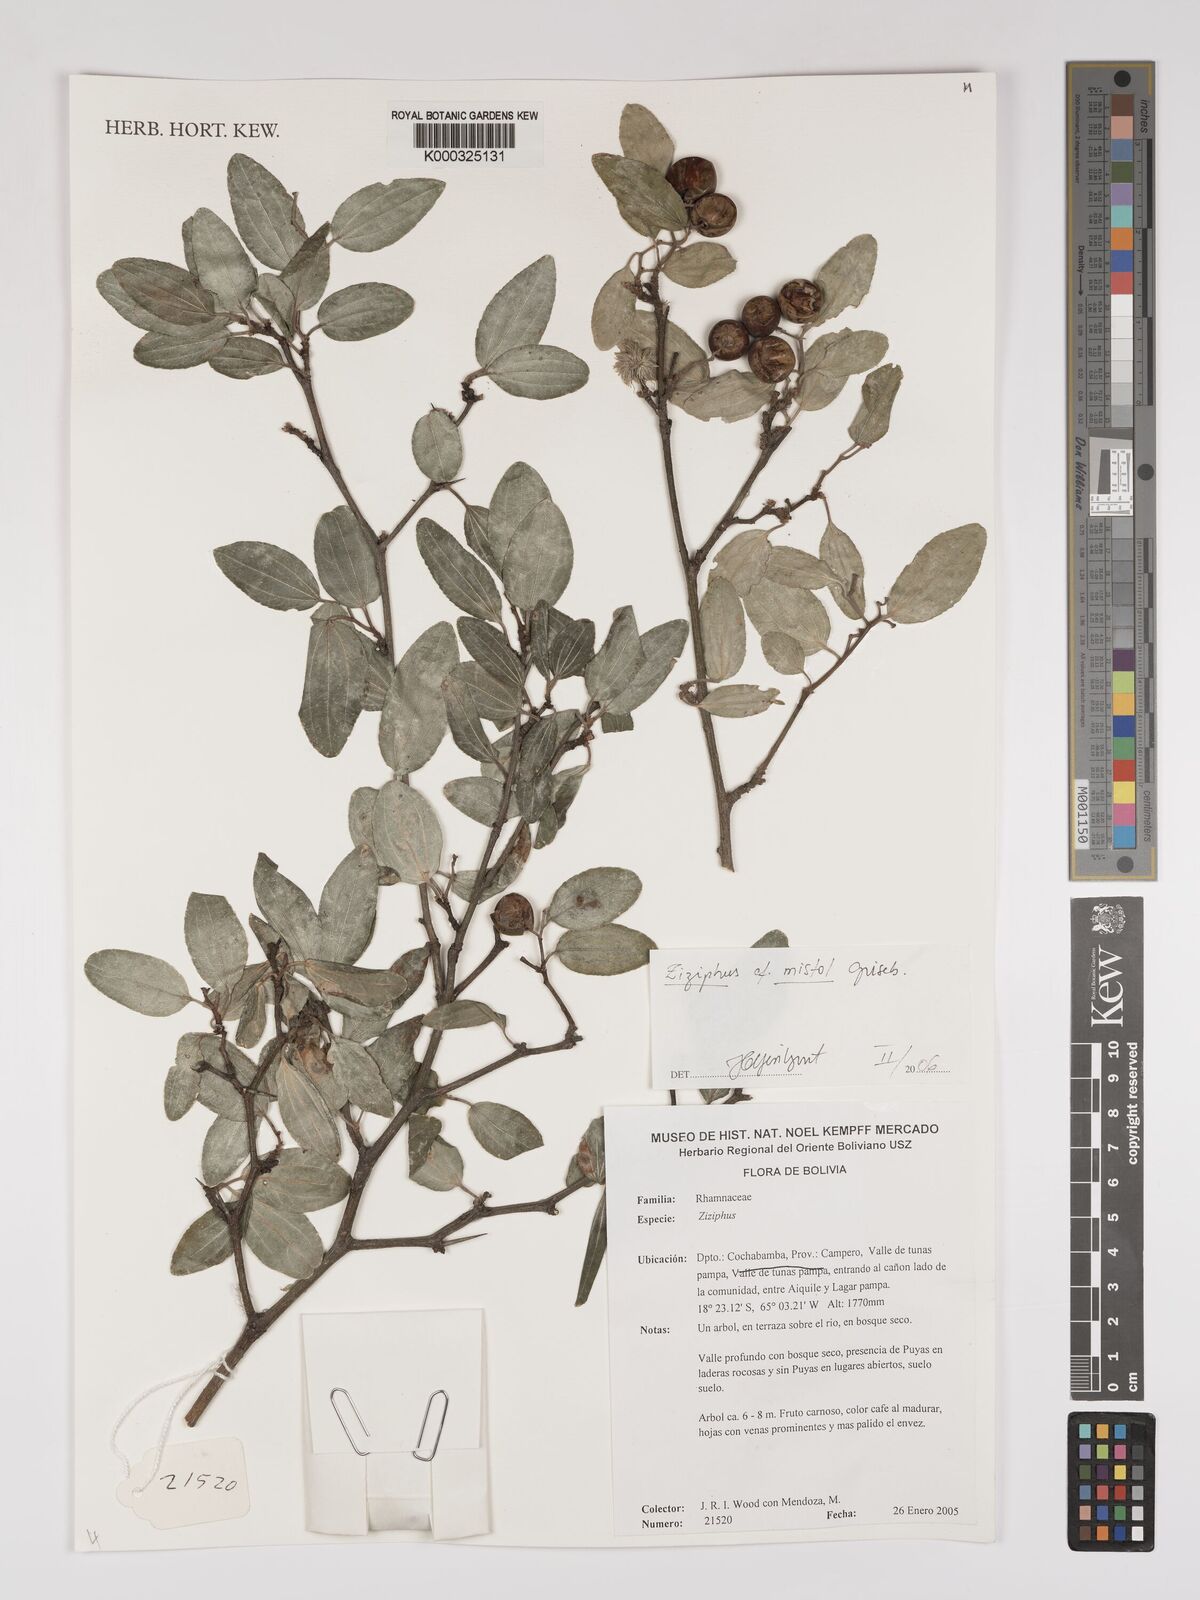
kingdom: Plantae
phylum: Tracheophyta
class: Magnoliopsida
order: Rosales
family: Rhamnaceae
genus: Sarcomphalus
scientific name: Sarcomphalus mistol
